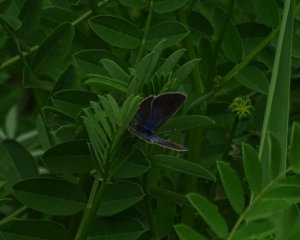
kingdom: Animalia
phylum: Arthropoda
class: Insecta
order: Lepidoptera
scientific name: Lepidoptera
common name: Butterflies
